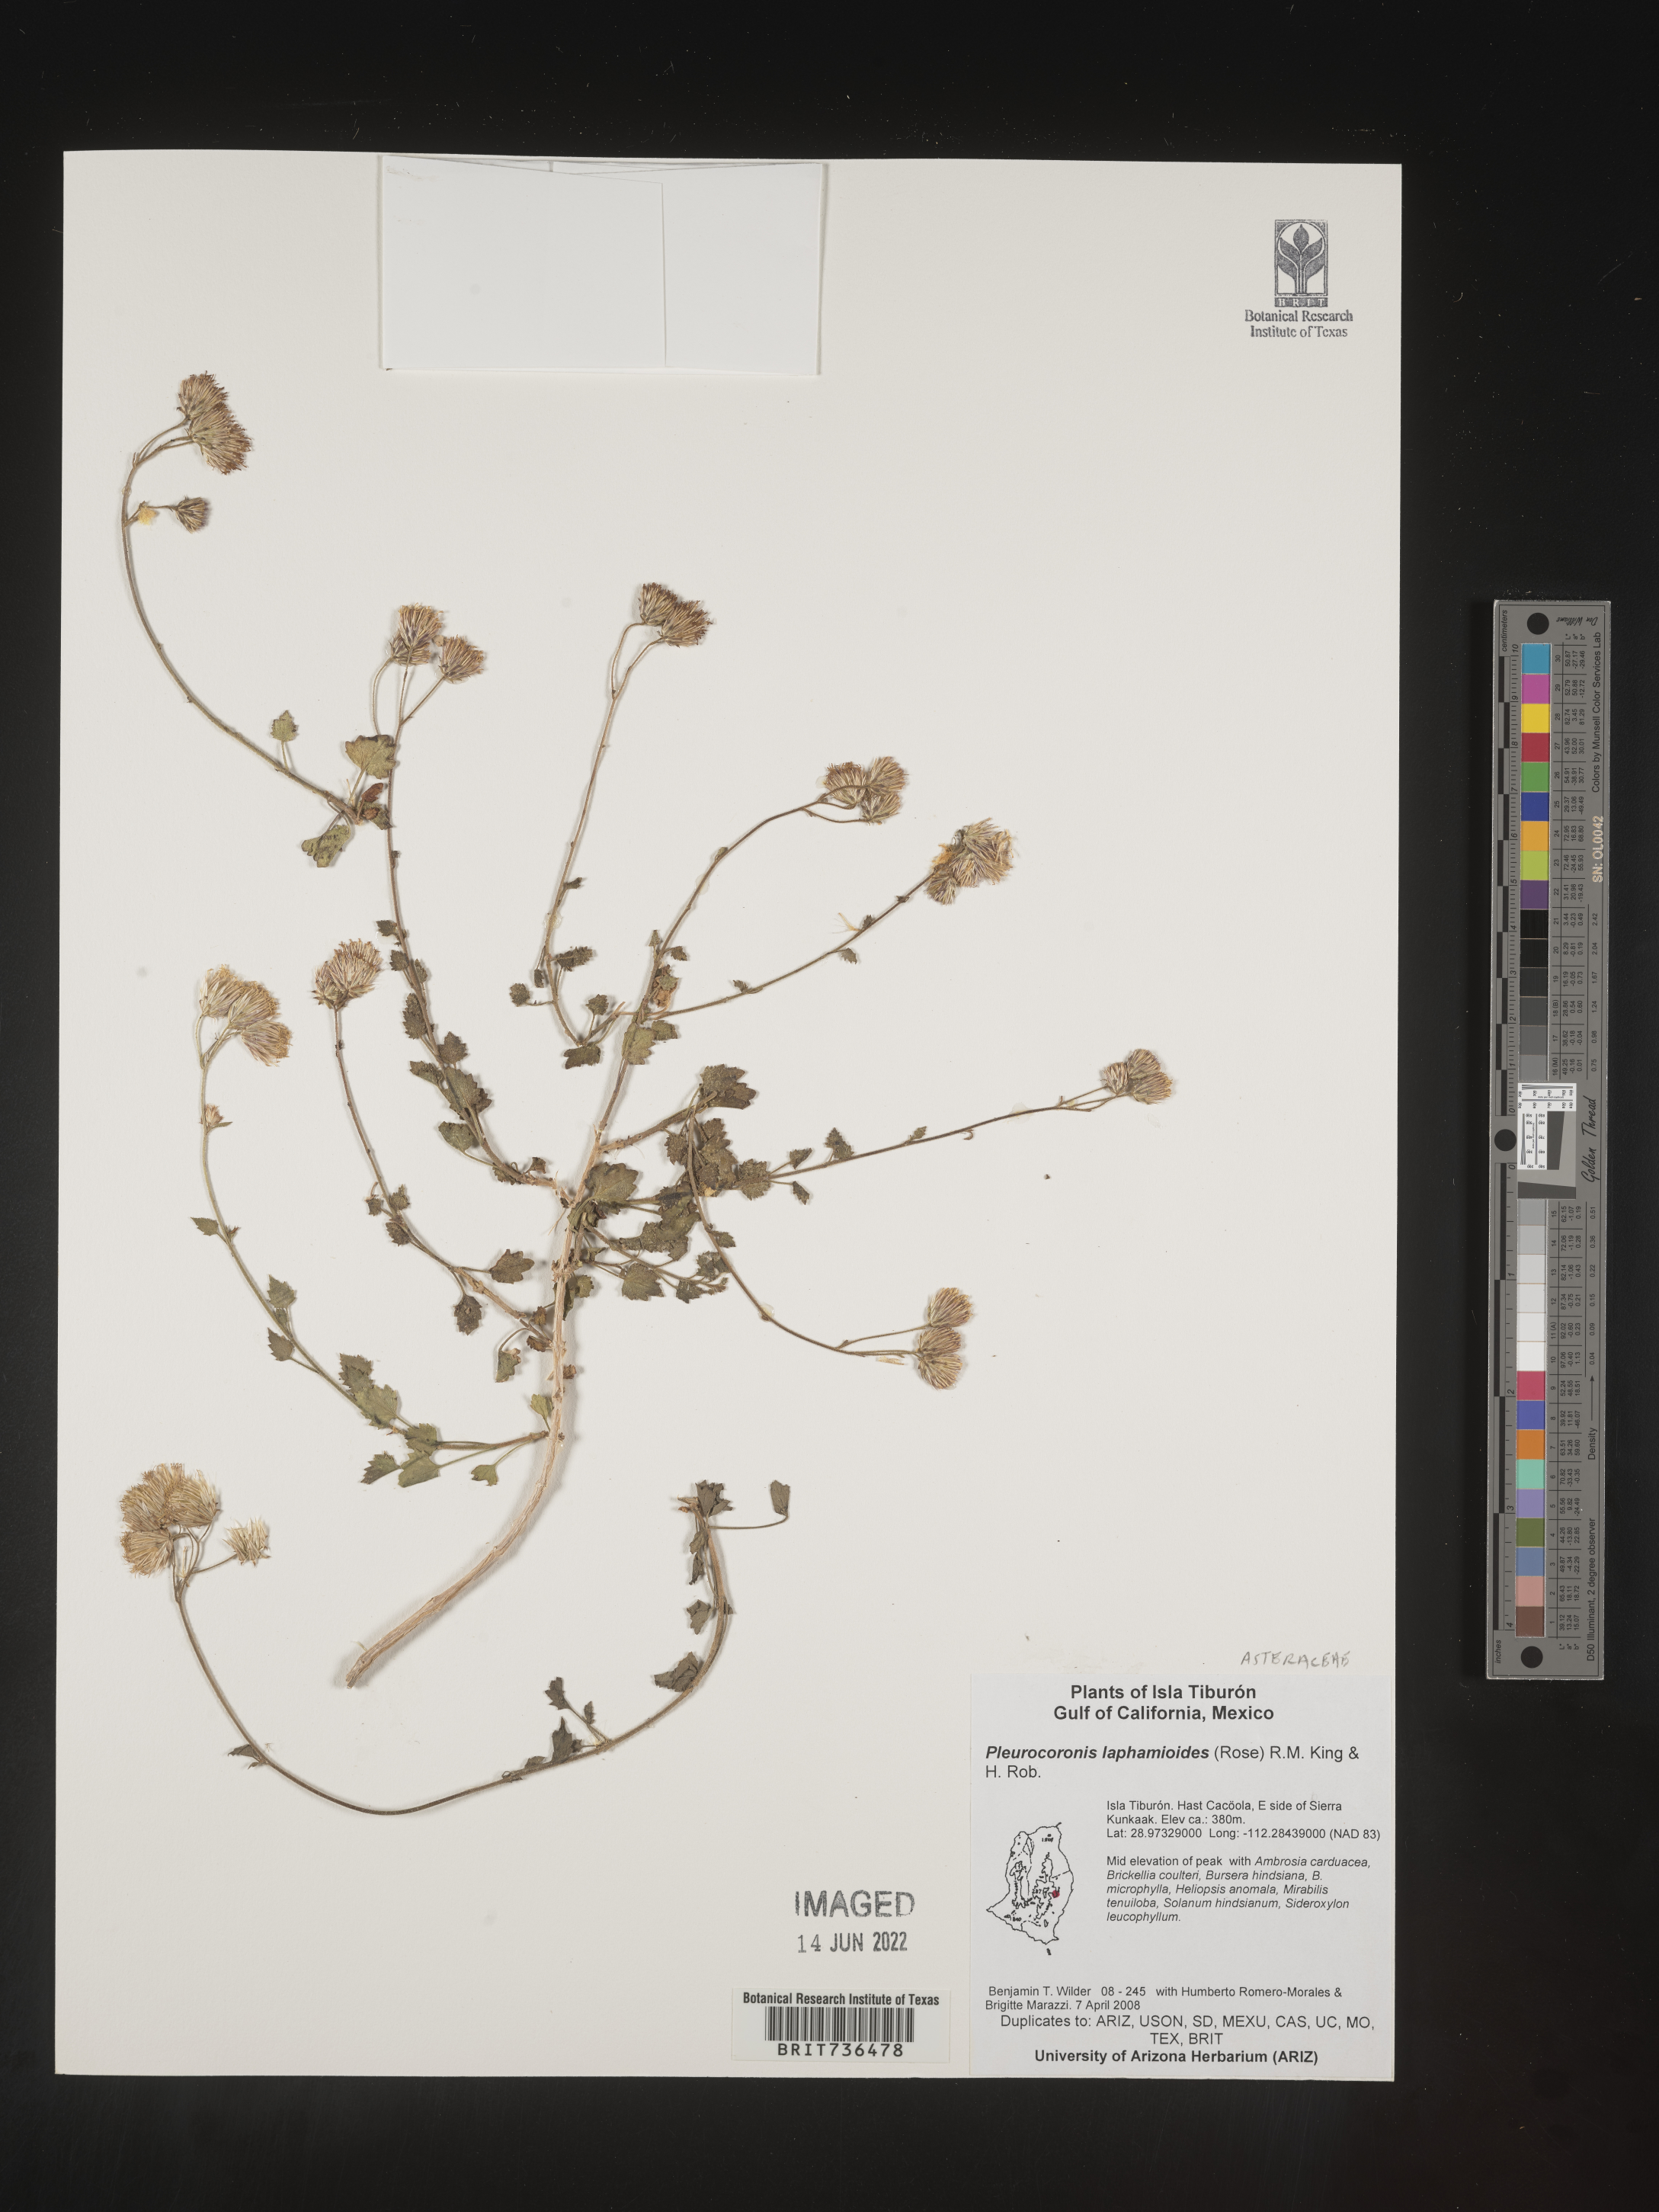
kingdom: Plantae
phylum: Tracheophyta
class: Magnoliopsida
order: Asterales
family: Asteraceae
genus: Pleurocoronis
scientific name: Pleurocoronis
